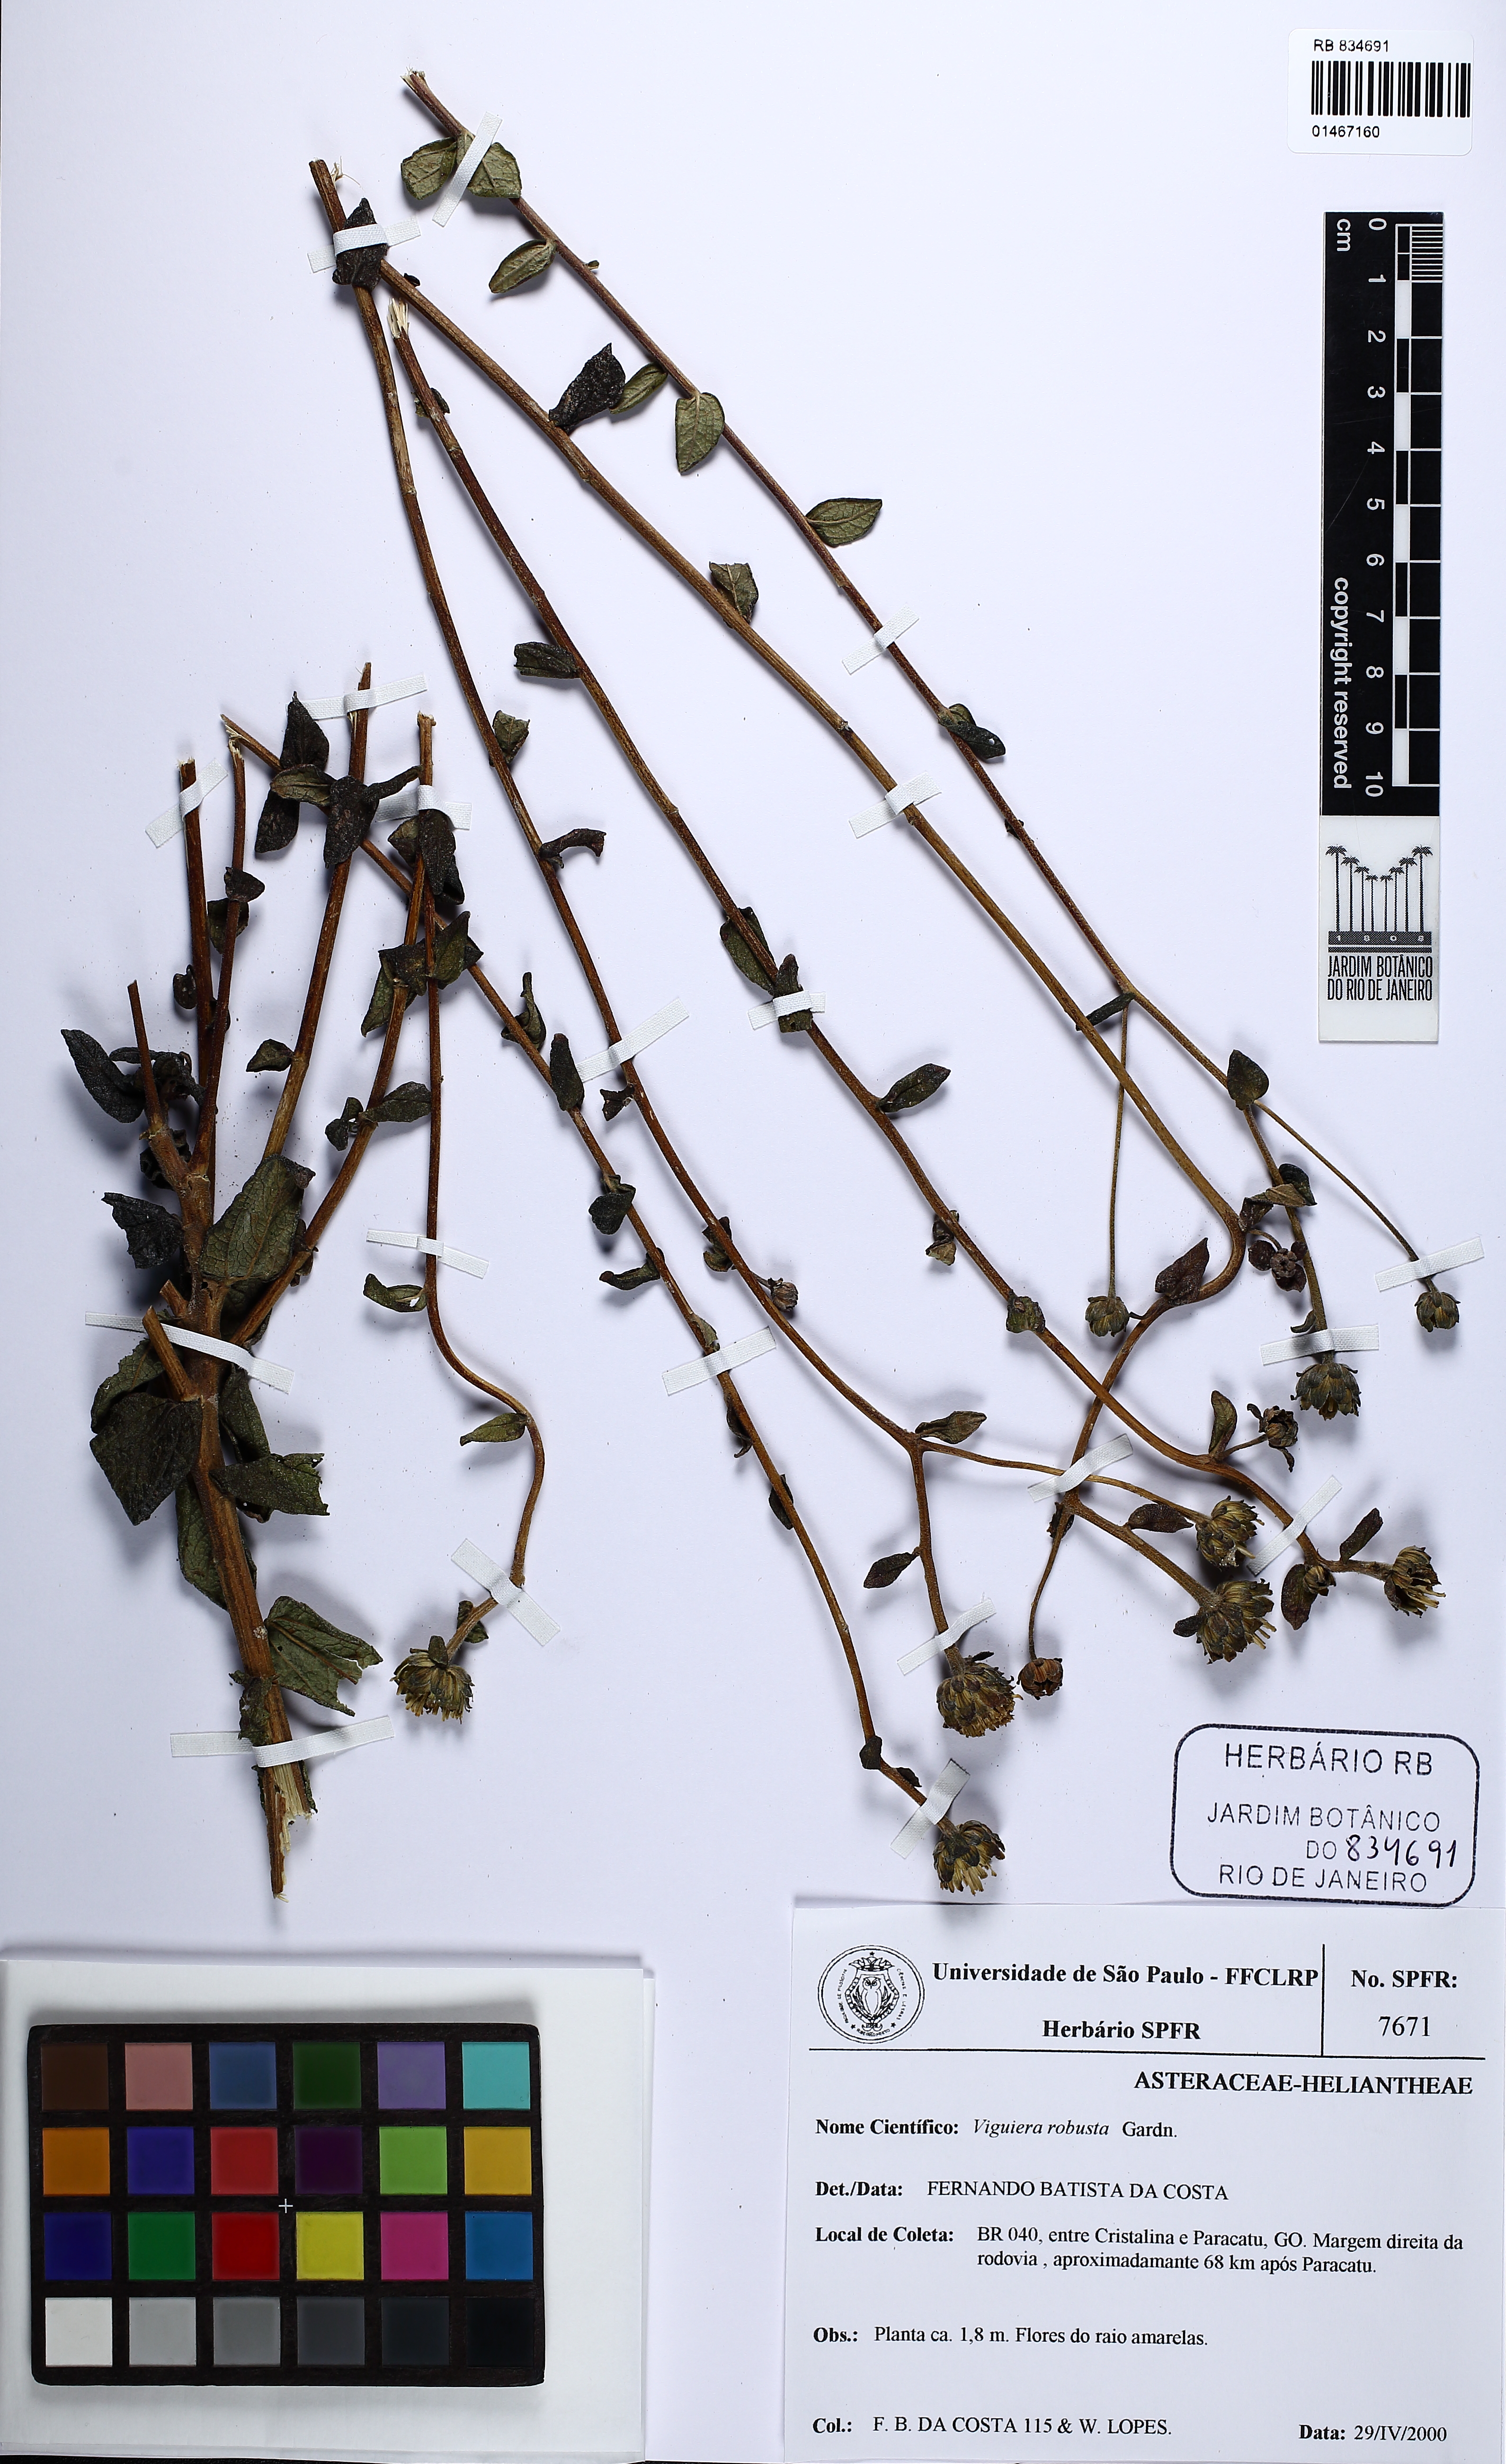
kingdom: Plantae
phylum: Tracheophyta
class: Magnoliopsida
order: Asterales
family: Asteraceae
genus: Aldama
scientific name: Aldama robusta
